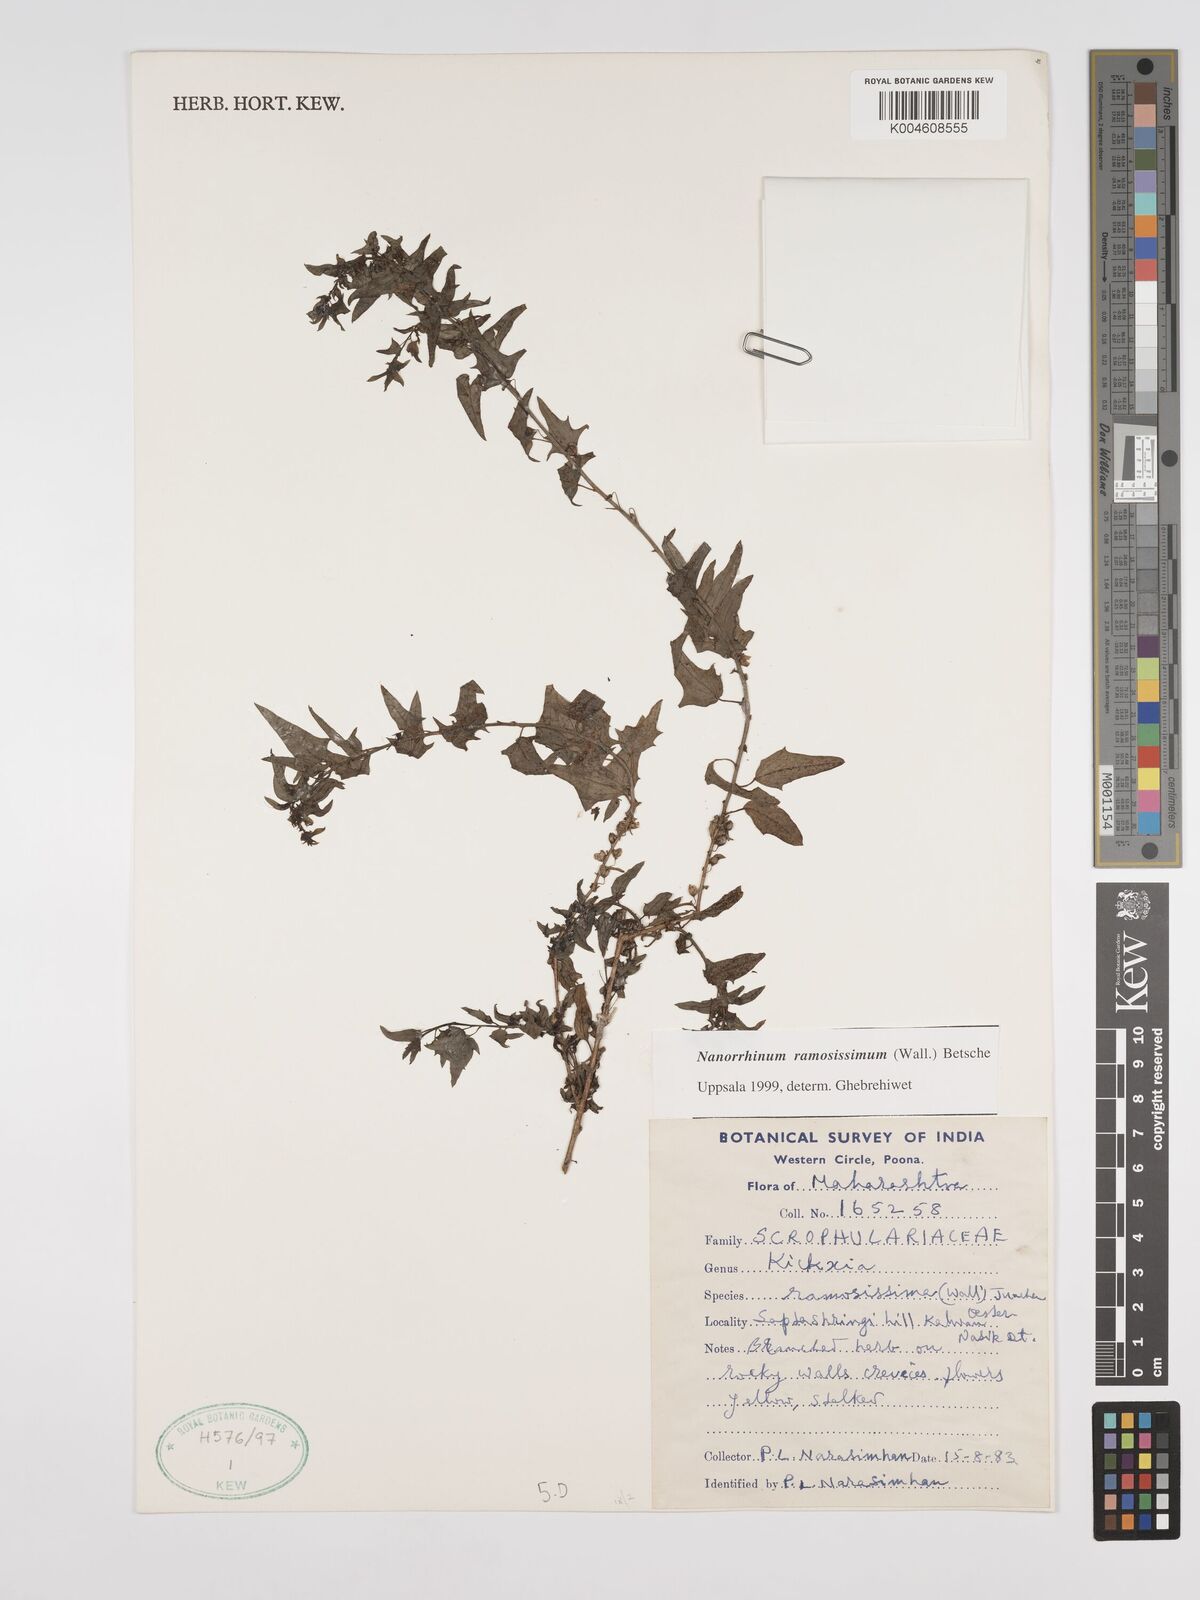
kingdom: Plantae
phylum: Tracheophyta
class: Magnoliopsida
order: Lamiales
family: Plantaginaceae
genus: Nanorrhinum
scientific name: Nanorrhinum ramosissimum
